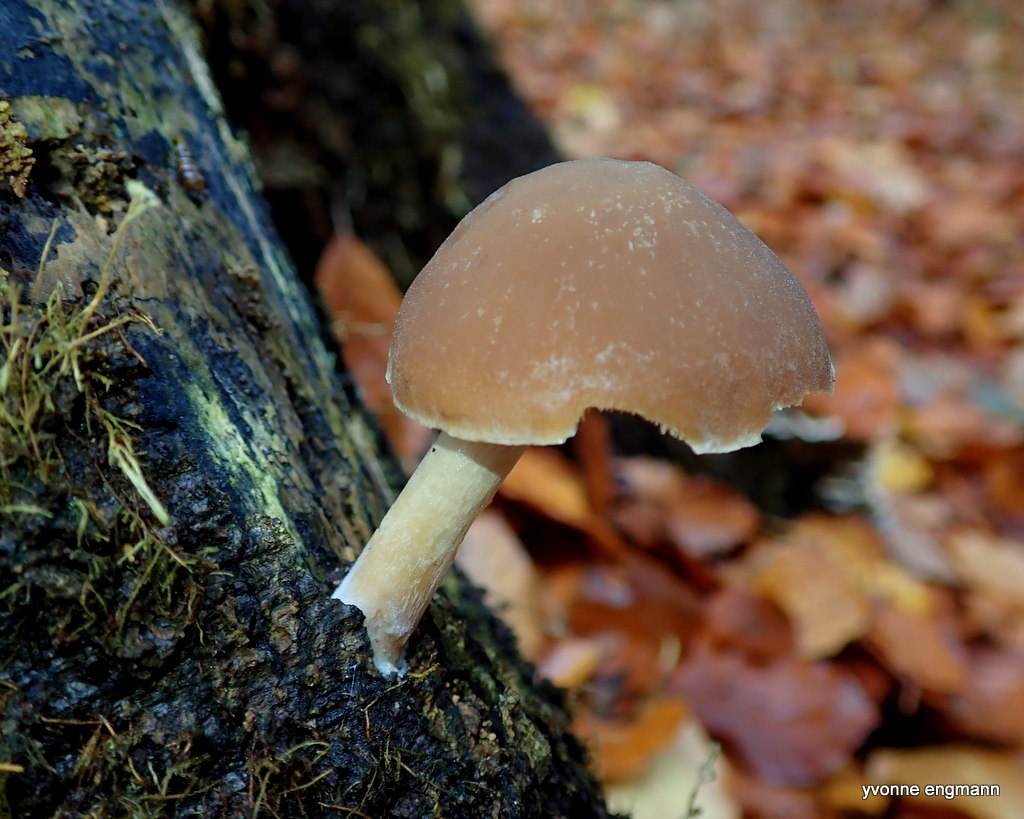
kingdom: Fungi
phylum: Basidiomycota
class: Agaricomycetes
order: Agaricales
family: Psathyrellaceae
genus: Psathyrella
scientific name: Psathyrella piluliformis
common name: lysstokket mørkhat
